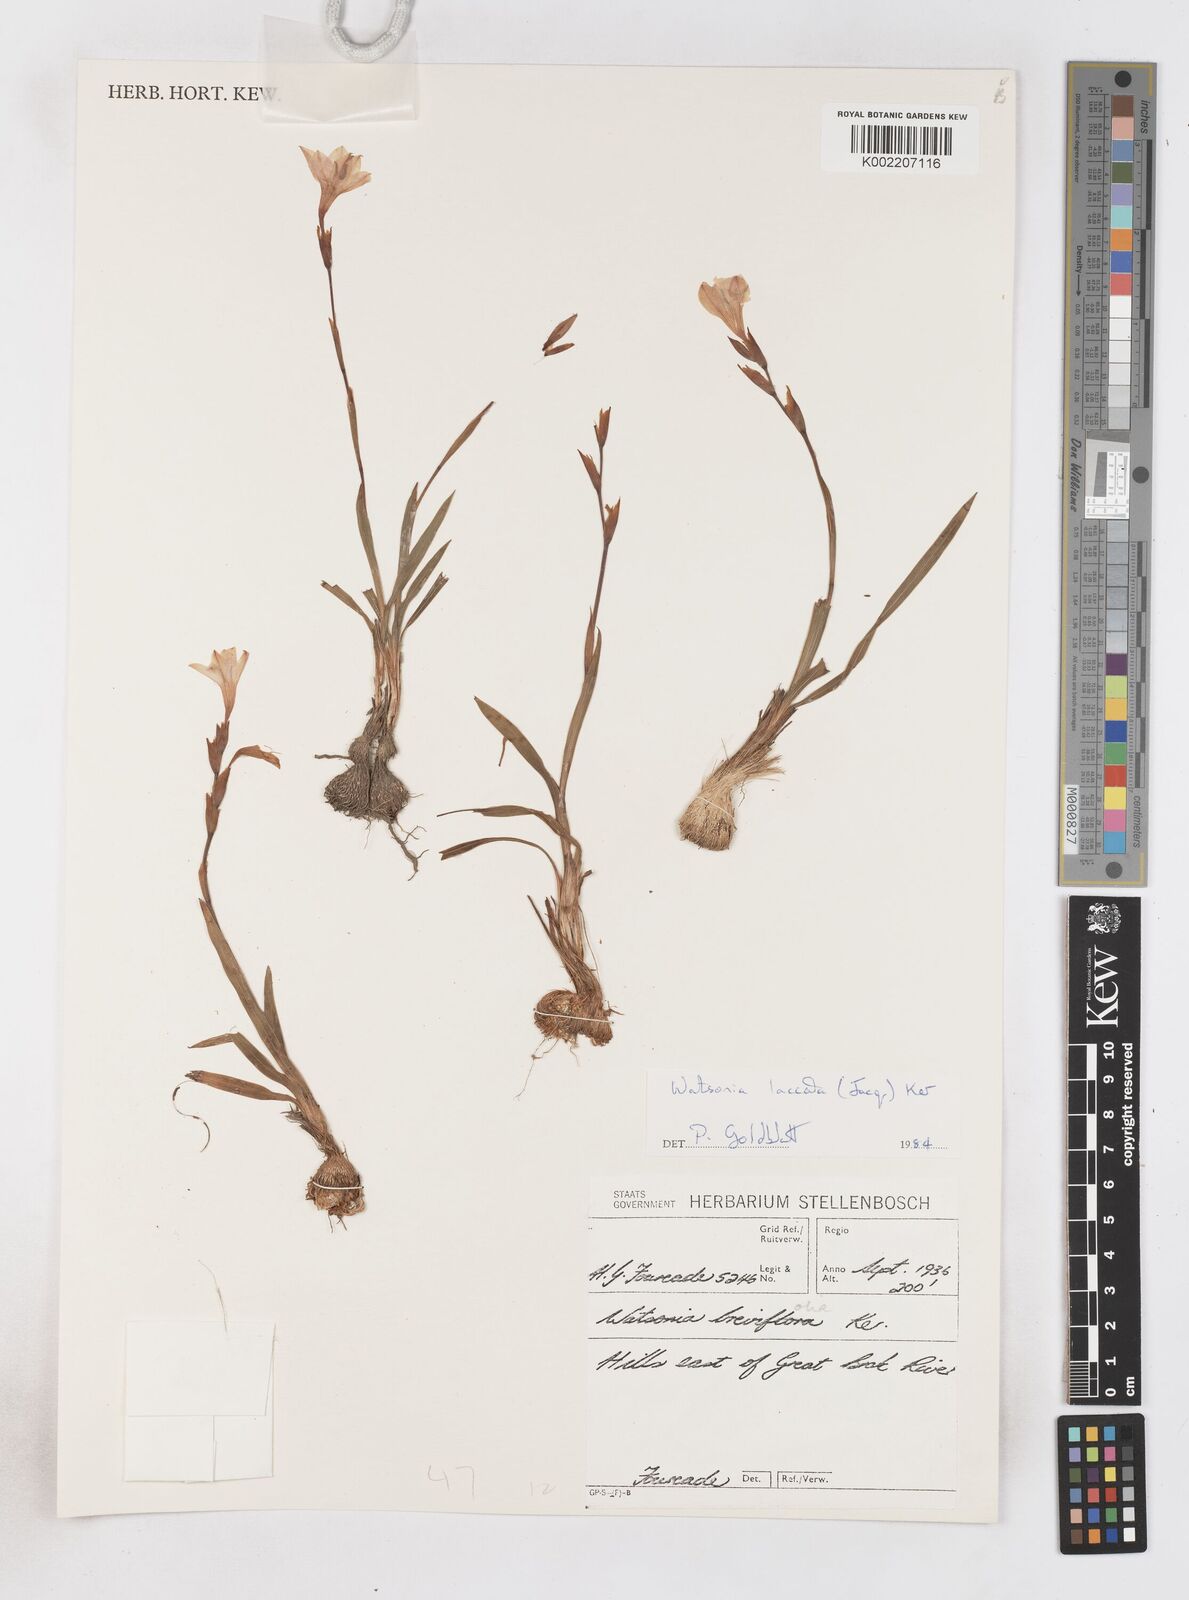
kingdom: Plantae
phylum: Tracheophyta
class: Liliopsida
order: Asparagales
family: Iridaceae
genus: Watsonia
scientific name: Watsonia laccata
